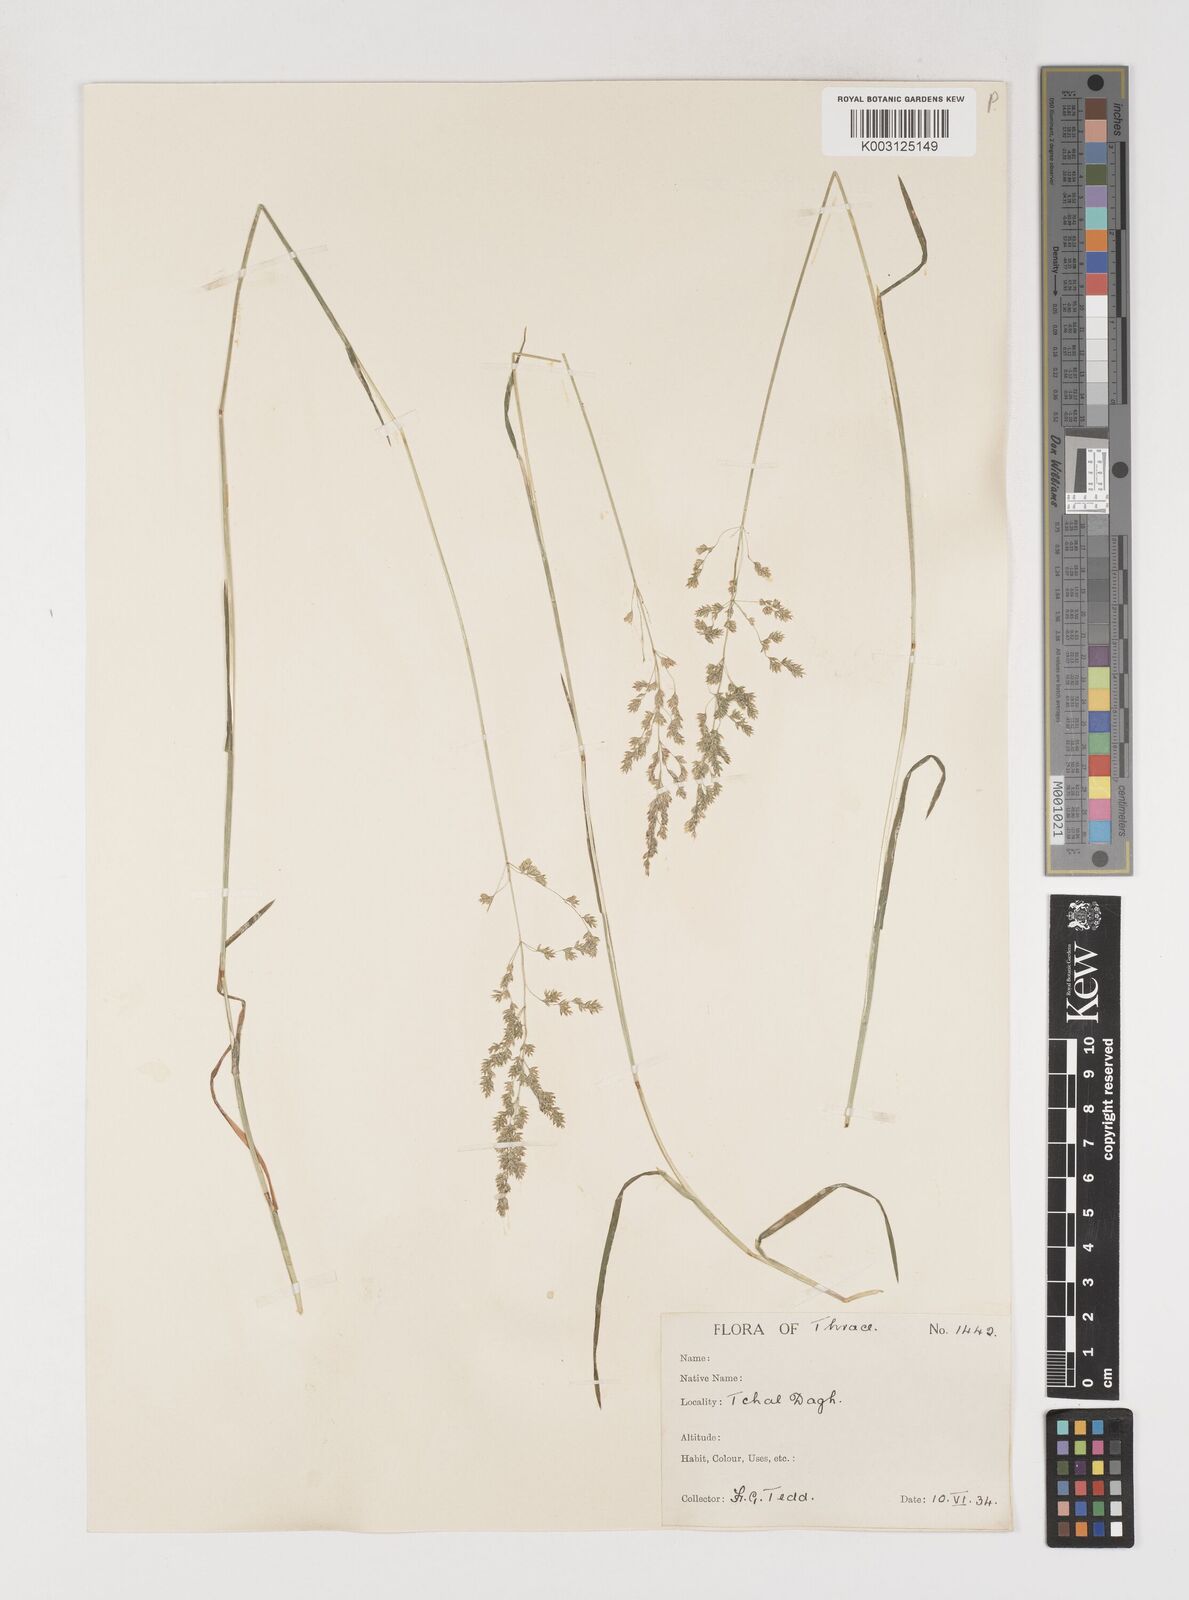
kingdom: Plantae
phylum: Tracheophyta
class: Liliopsida
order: Poales
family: Poaceae
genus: Poa
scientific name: Poa trivialis
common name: Rough bluegrass
